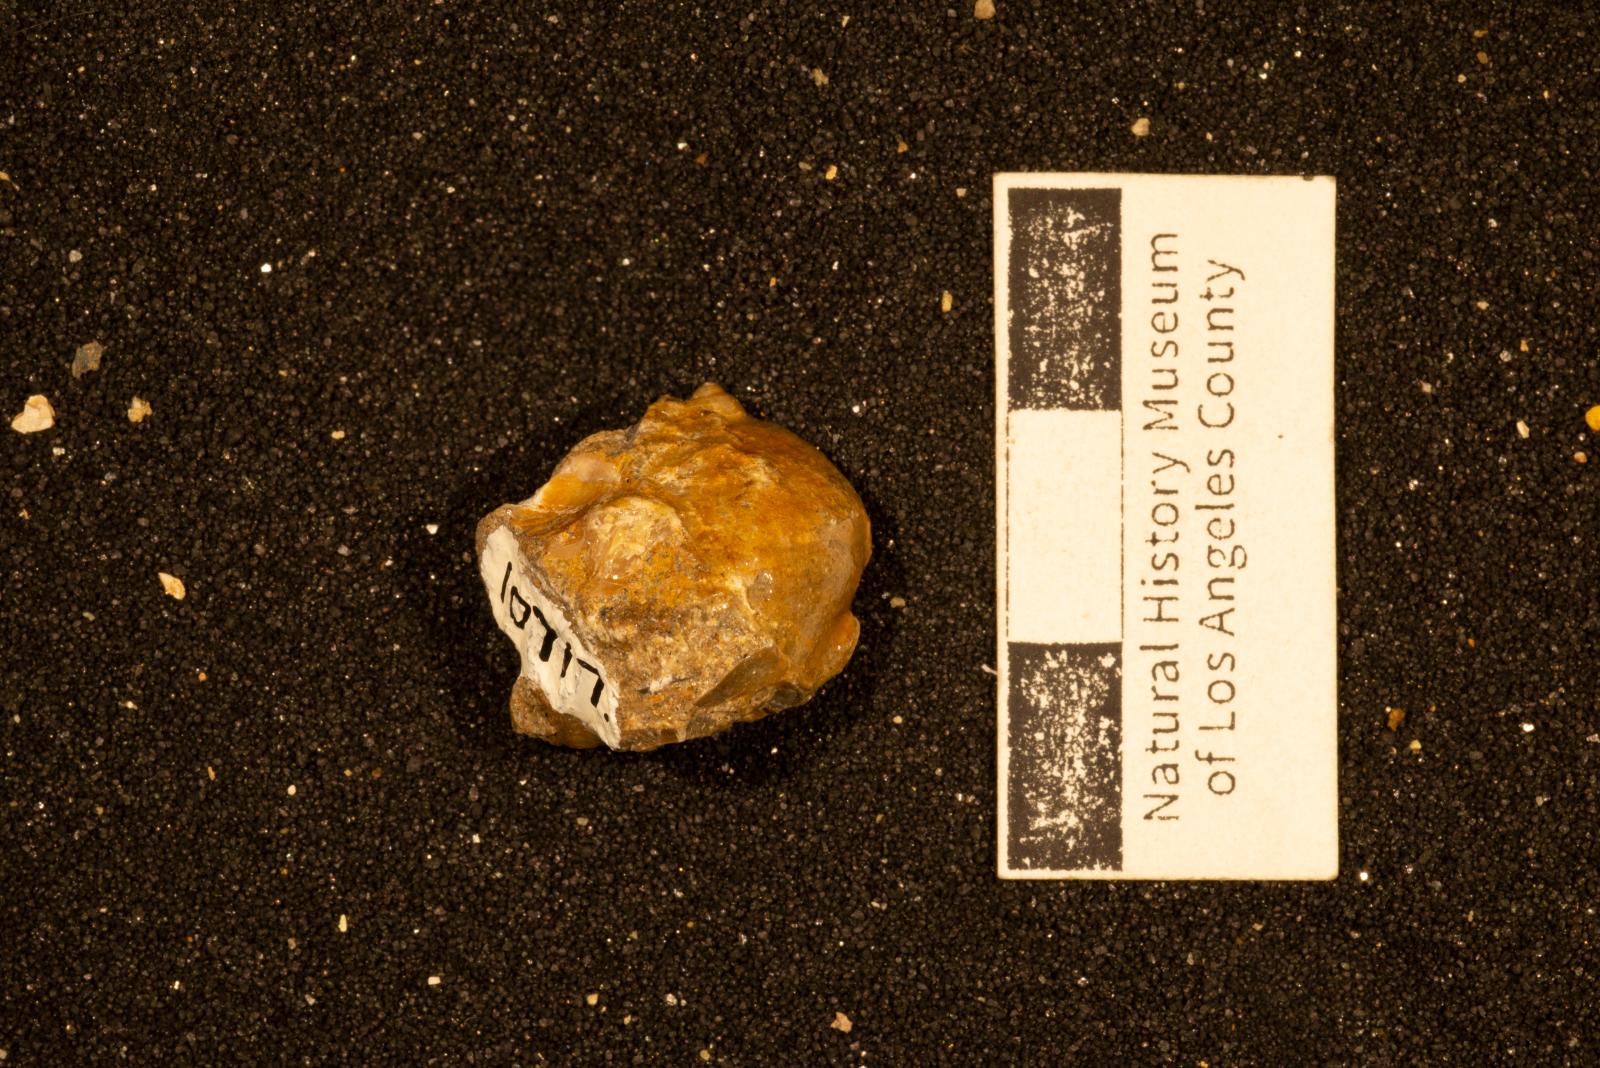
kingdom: Animalia
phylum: Mollusca
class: Gastropoda
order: Littorinimorpha
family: Calyptraeidae
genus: Lysis
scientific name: Lysis
